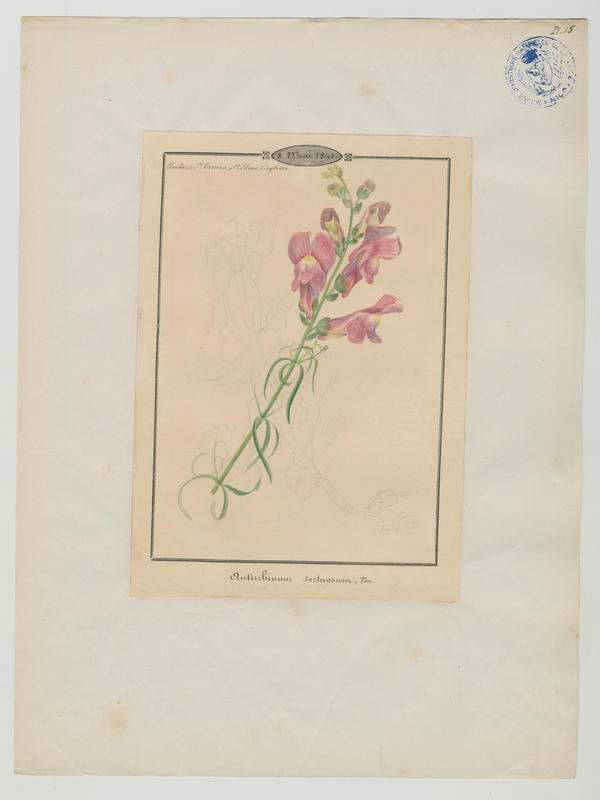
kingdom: Plantae
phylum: Tracheophyta
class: Magnoliopsida
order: Lamiales
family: Plantaginaceae
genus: Antirrhinum
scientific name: Antirrhinum tortuosum
